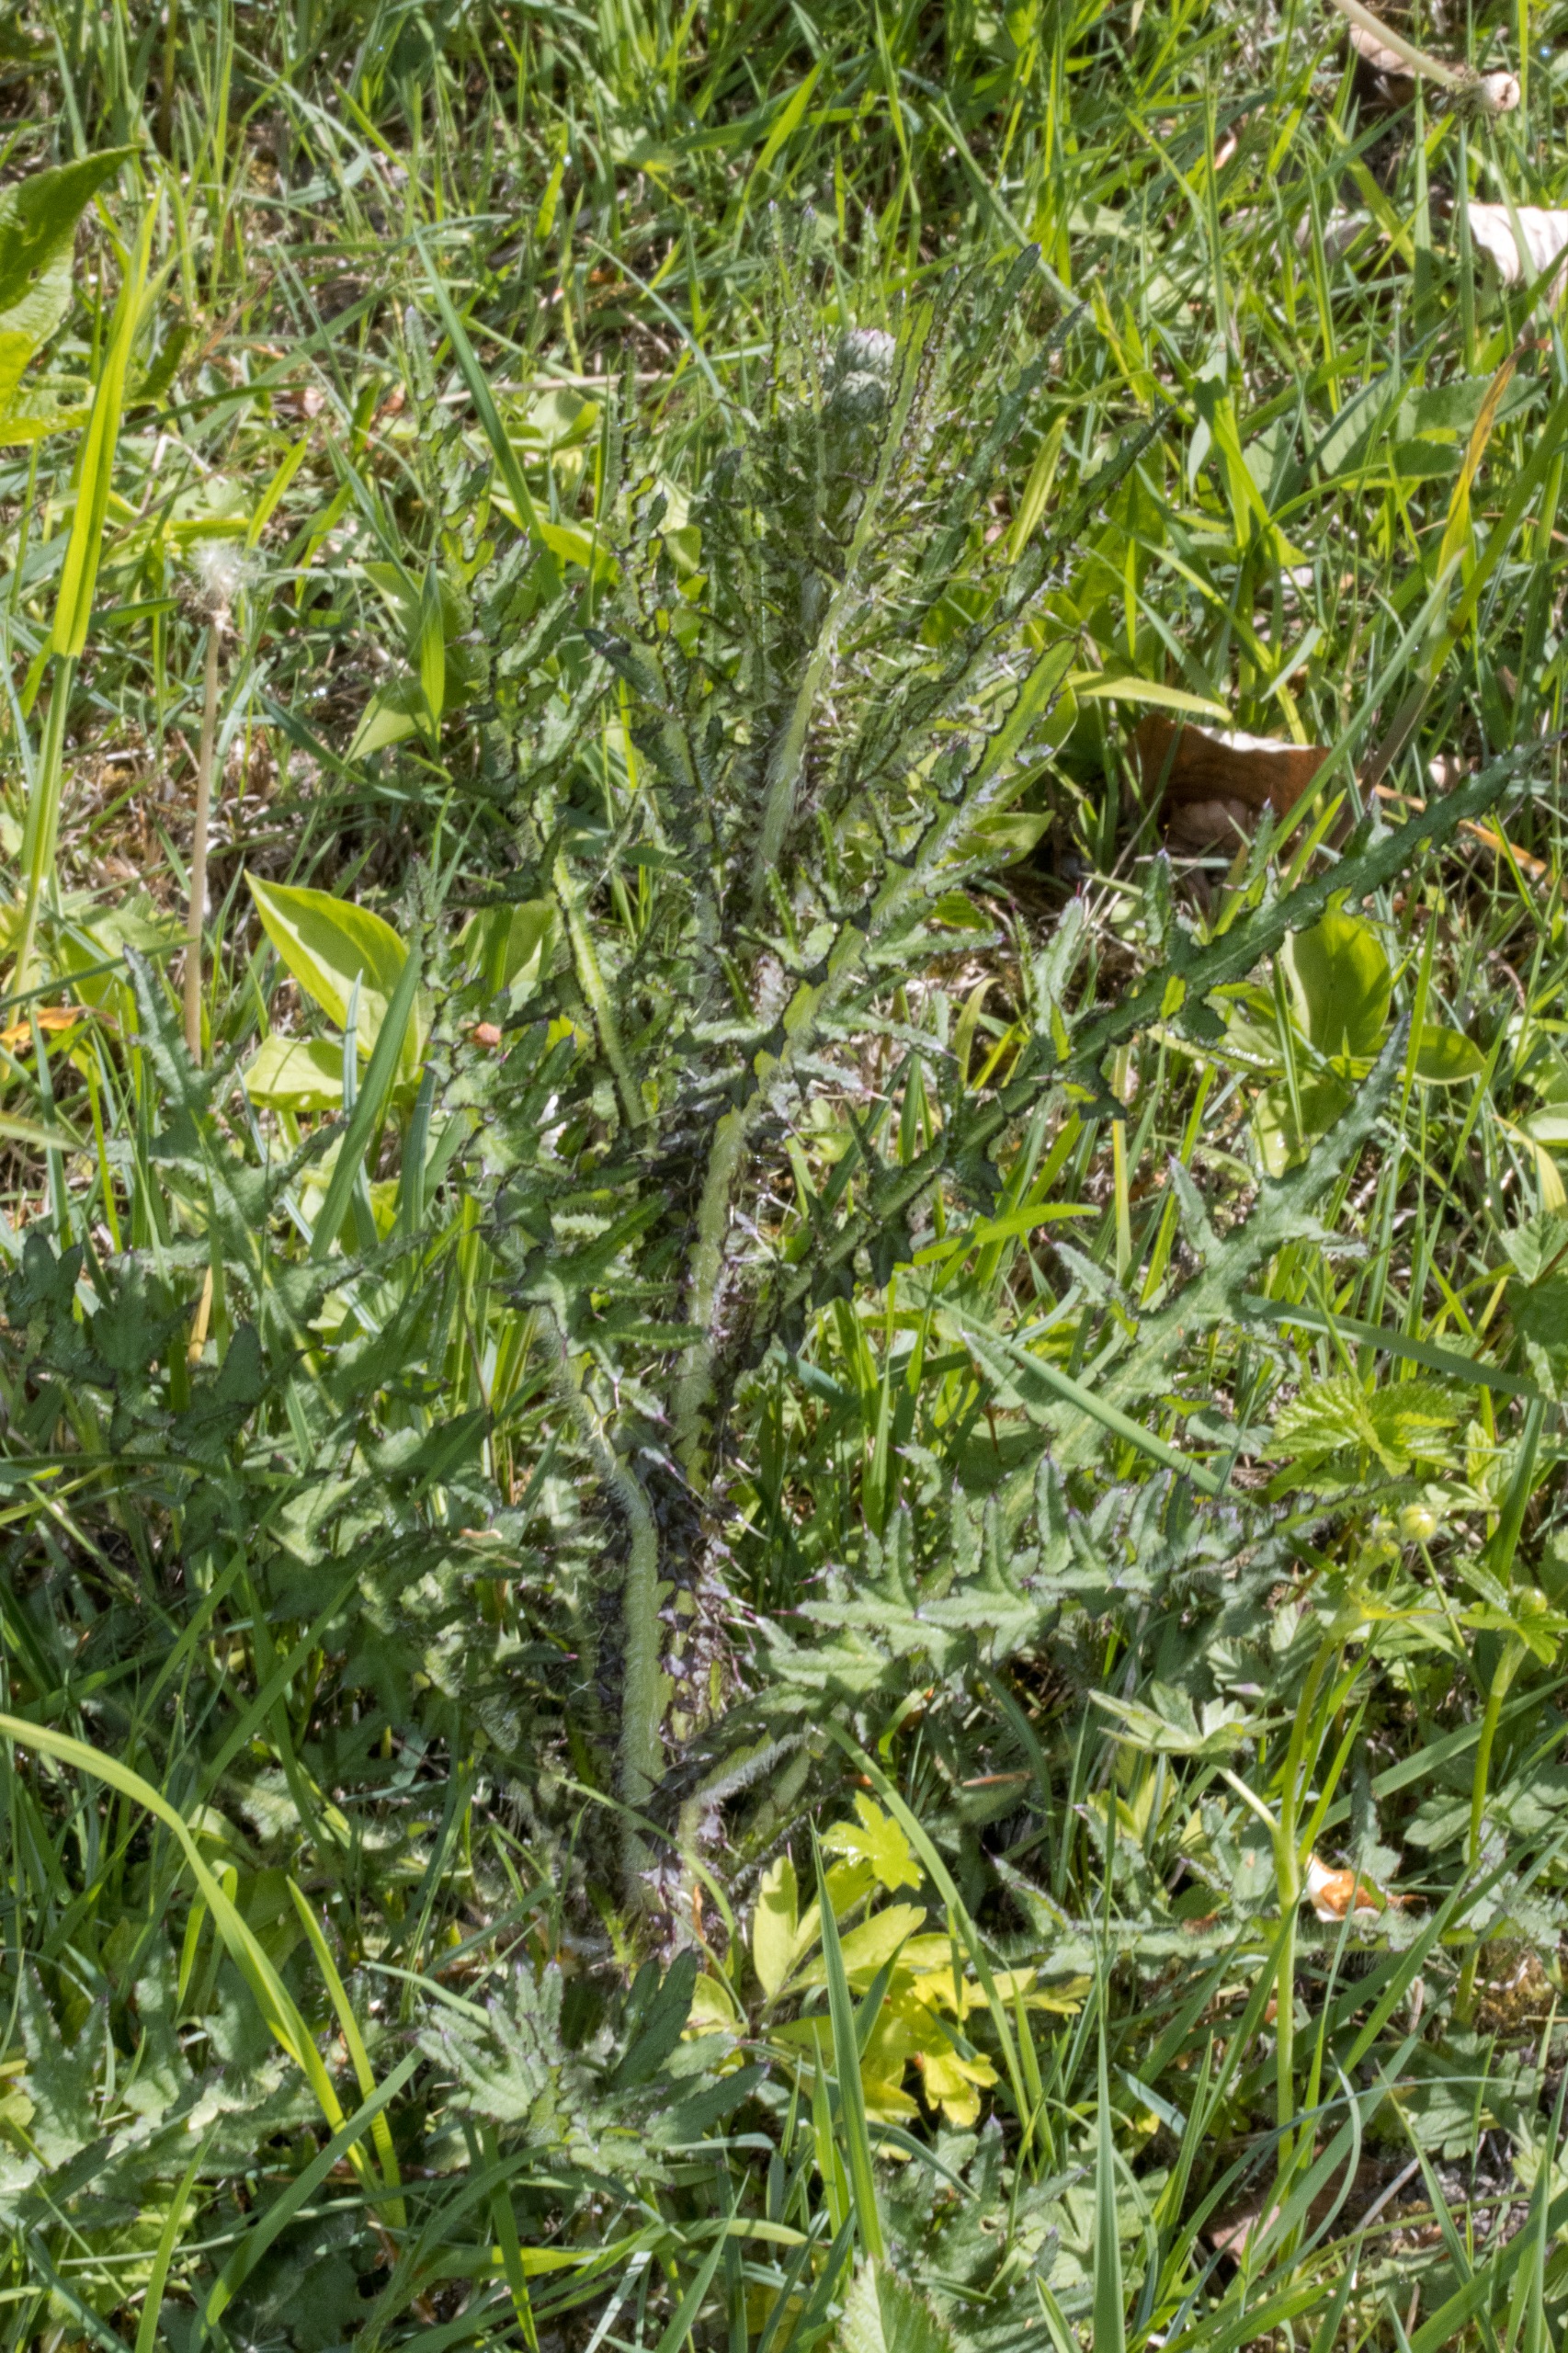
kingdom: Plantae
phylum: Tracheophyta
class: Magnoliopsida
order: Asterales
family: Asteraceae
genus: Cirsium
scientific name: Cirsium palustre
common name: Kær-tidsel
